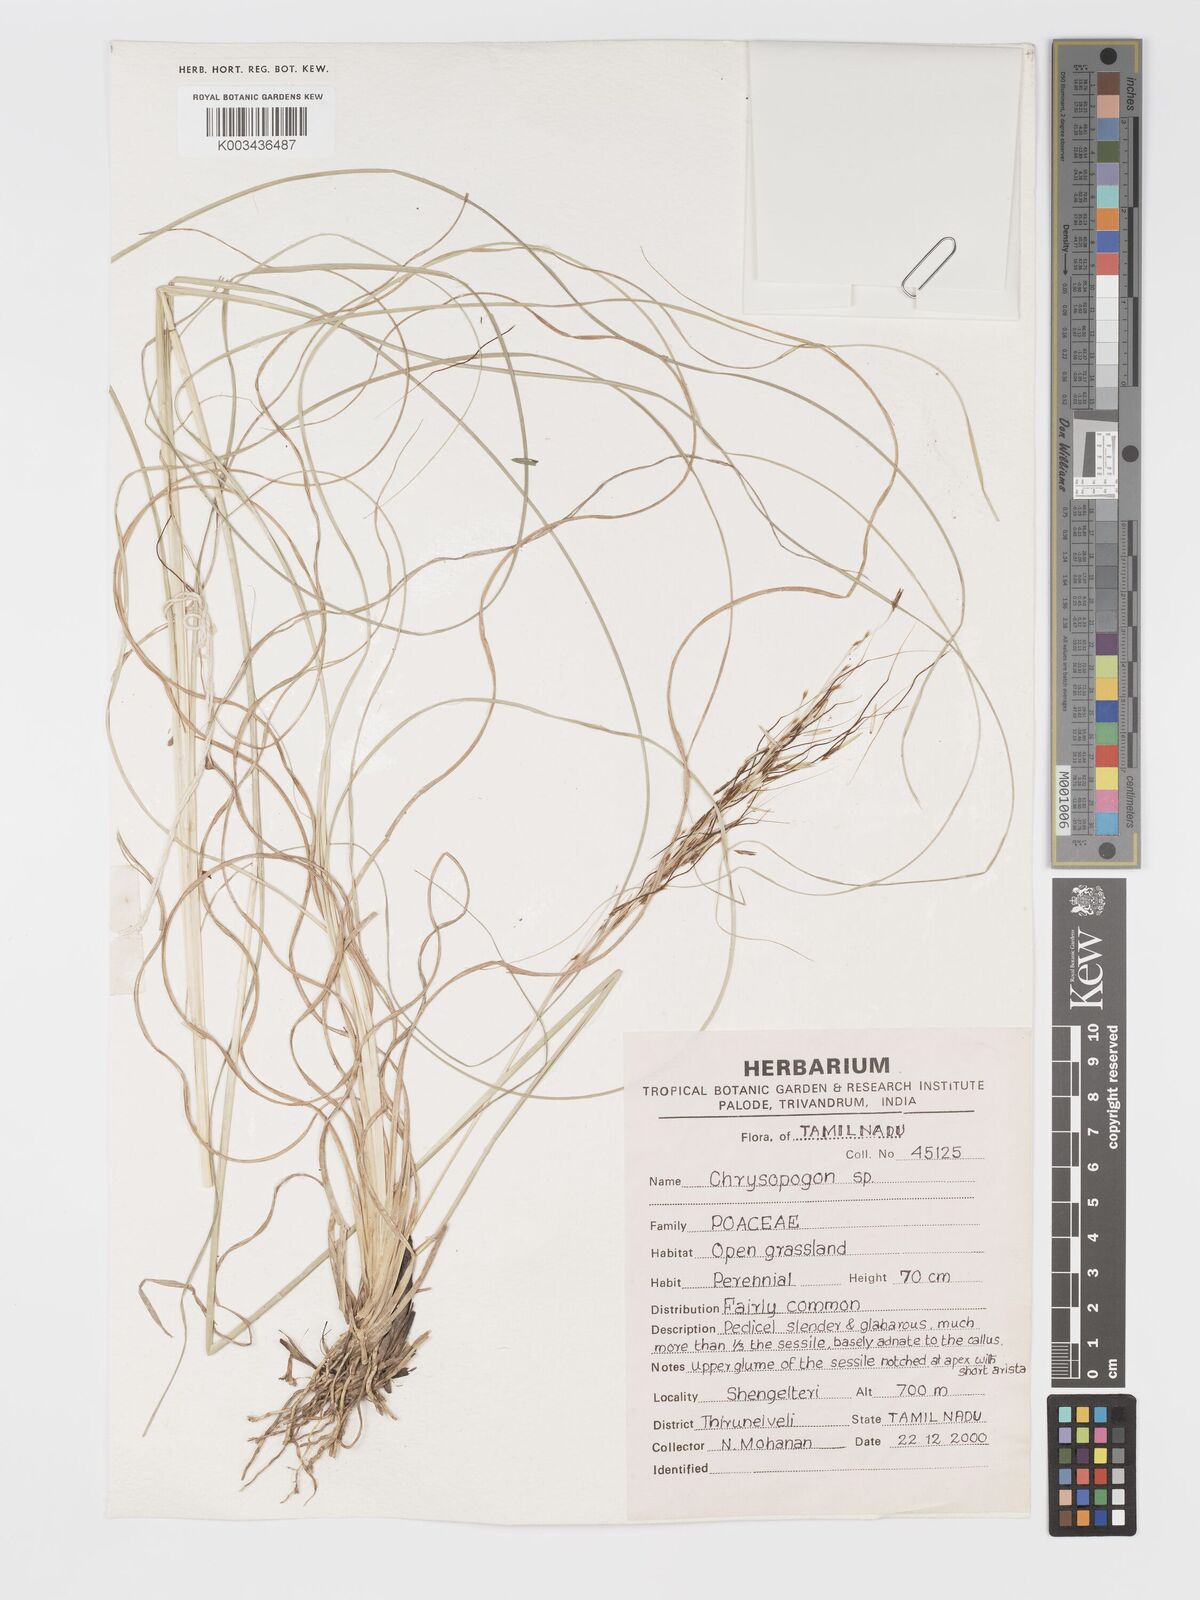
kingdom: Plantae
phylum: Tracheophyta
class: Liliopsida
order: Poales
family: Poaceae
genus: Chrysopogon
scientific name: Chrysopogon
